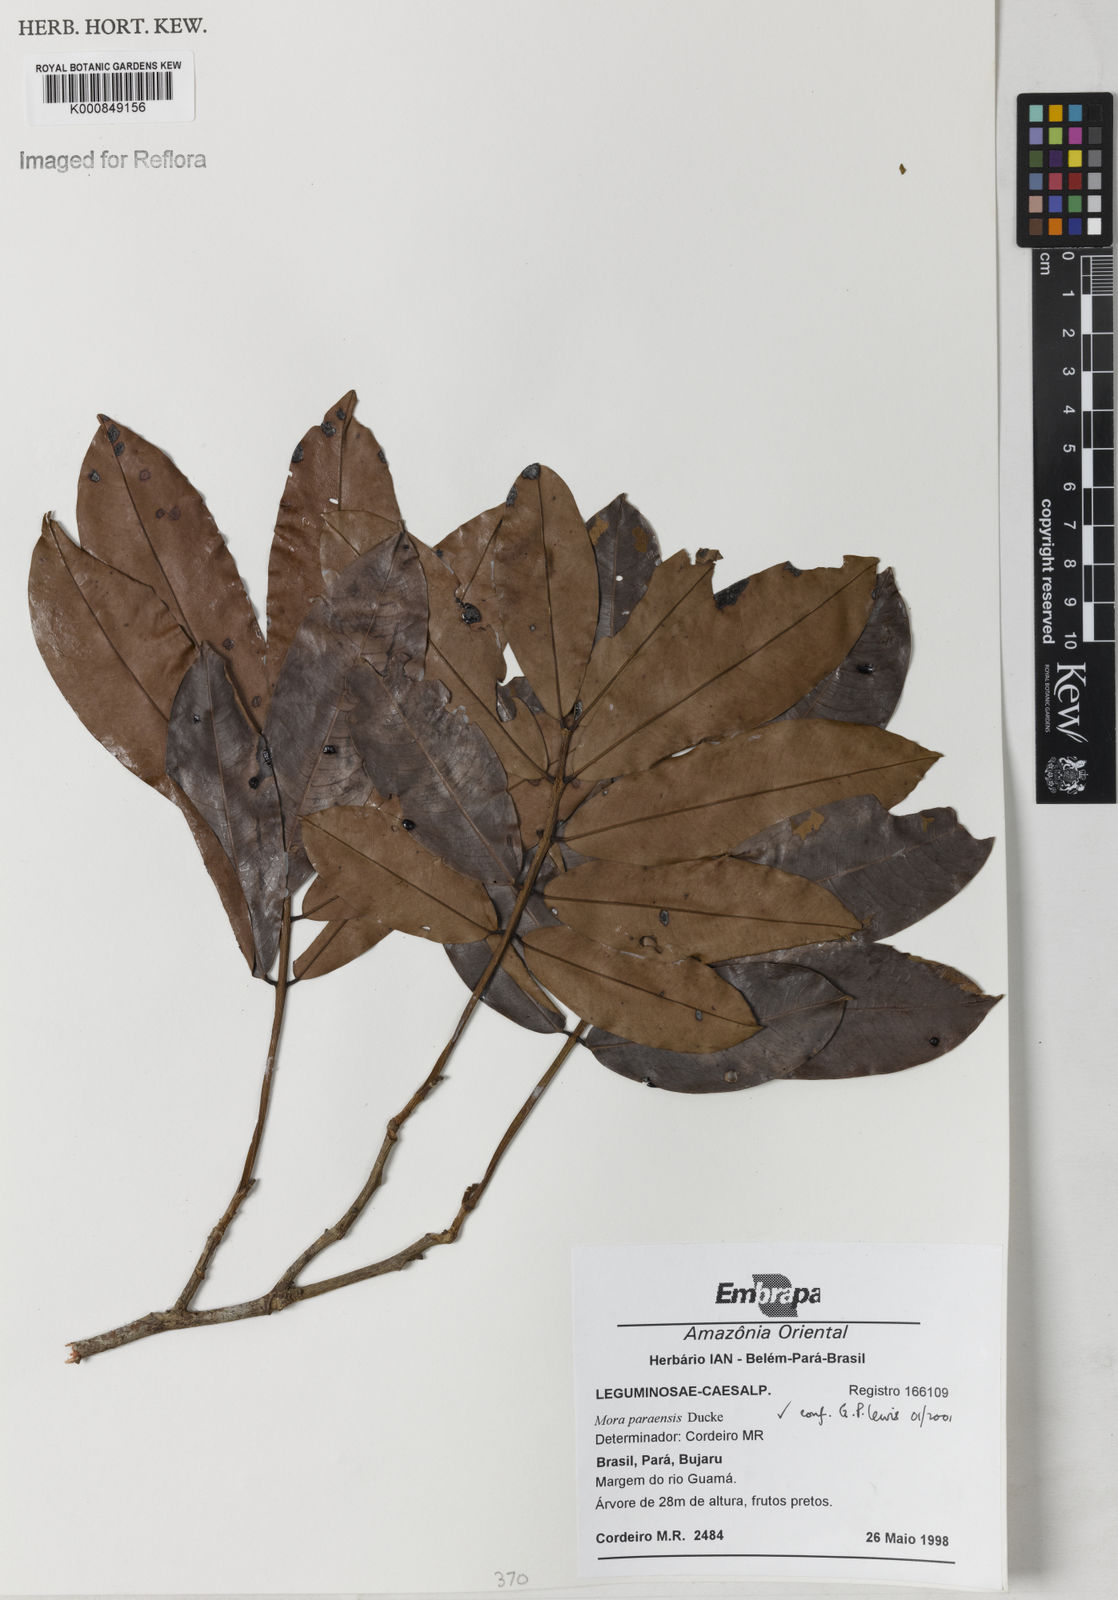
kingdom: Plantae
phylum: Tracheophyta
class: Magnoliopsida
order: Fabales
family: Fabaceae
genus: Mora
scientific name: Mora paraensis
